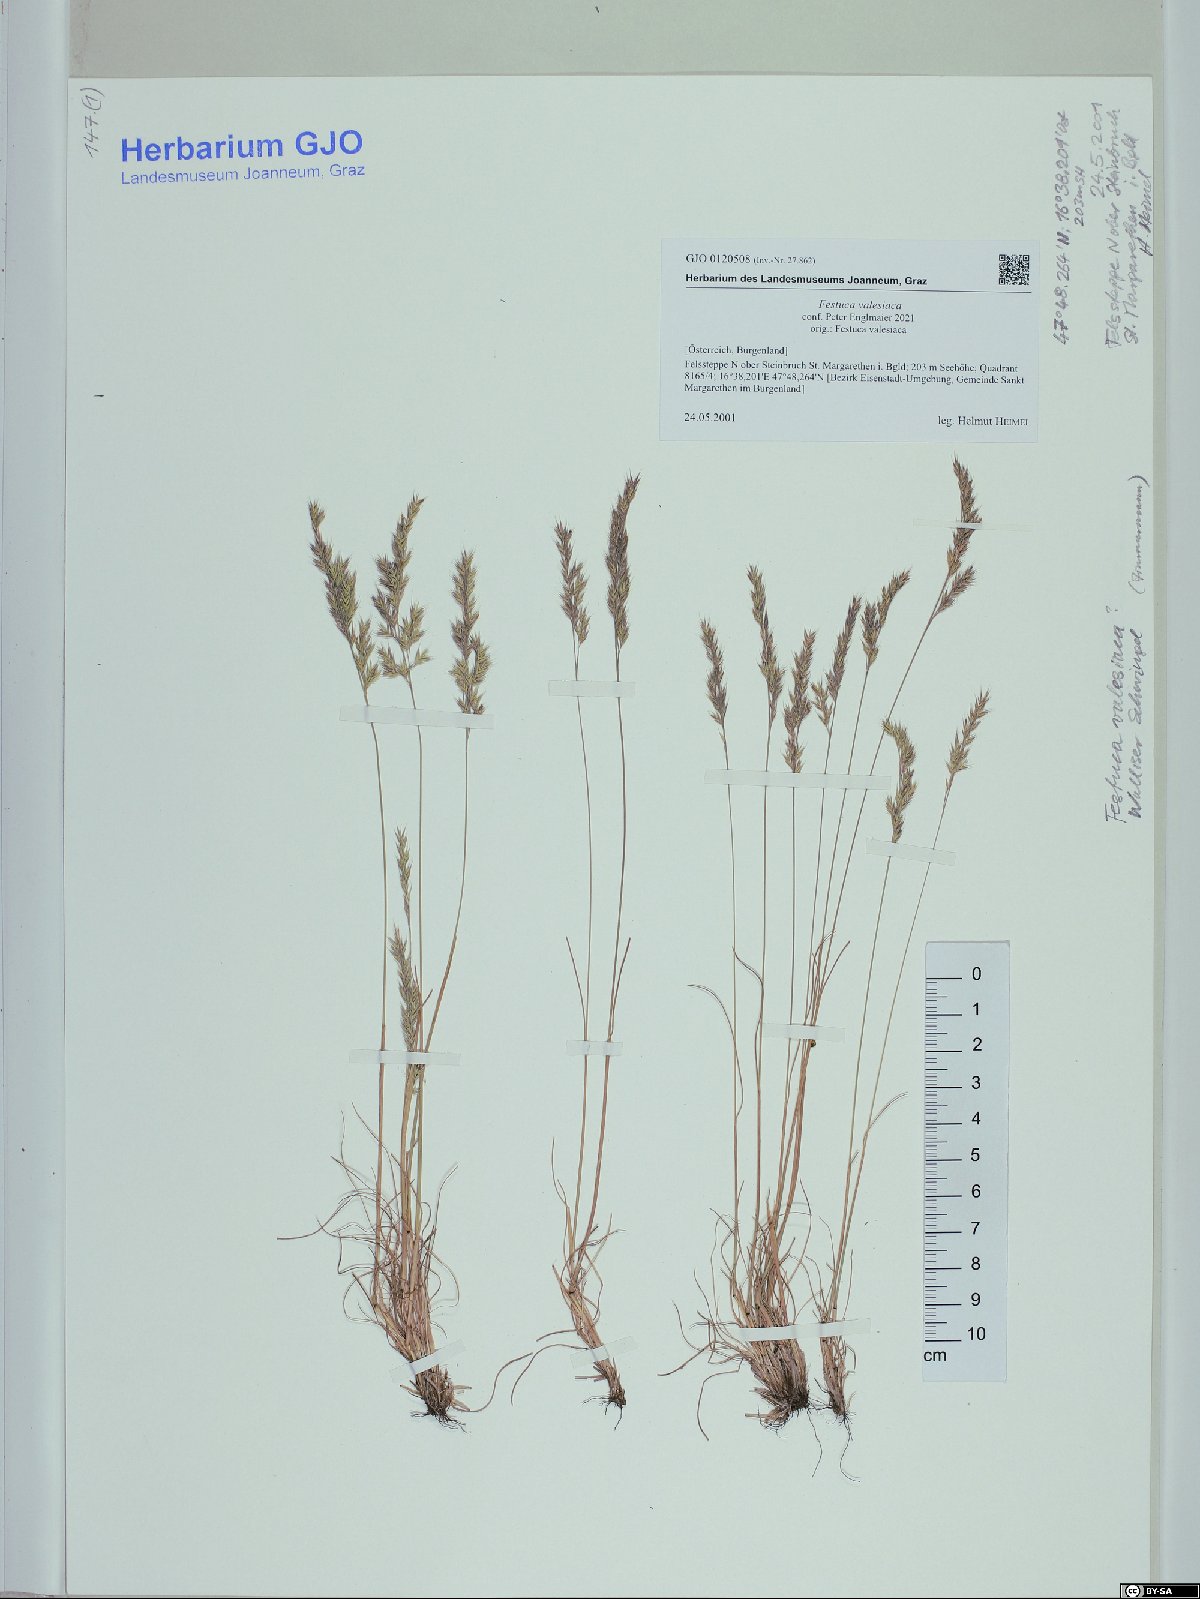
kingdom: Plantae
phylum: Tracheophyta
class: Liliopsida
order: Poales
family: Poaceae
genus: Festuca
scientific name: Festuca valesiaca
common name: Volga fescue
